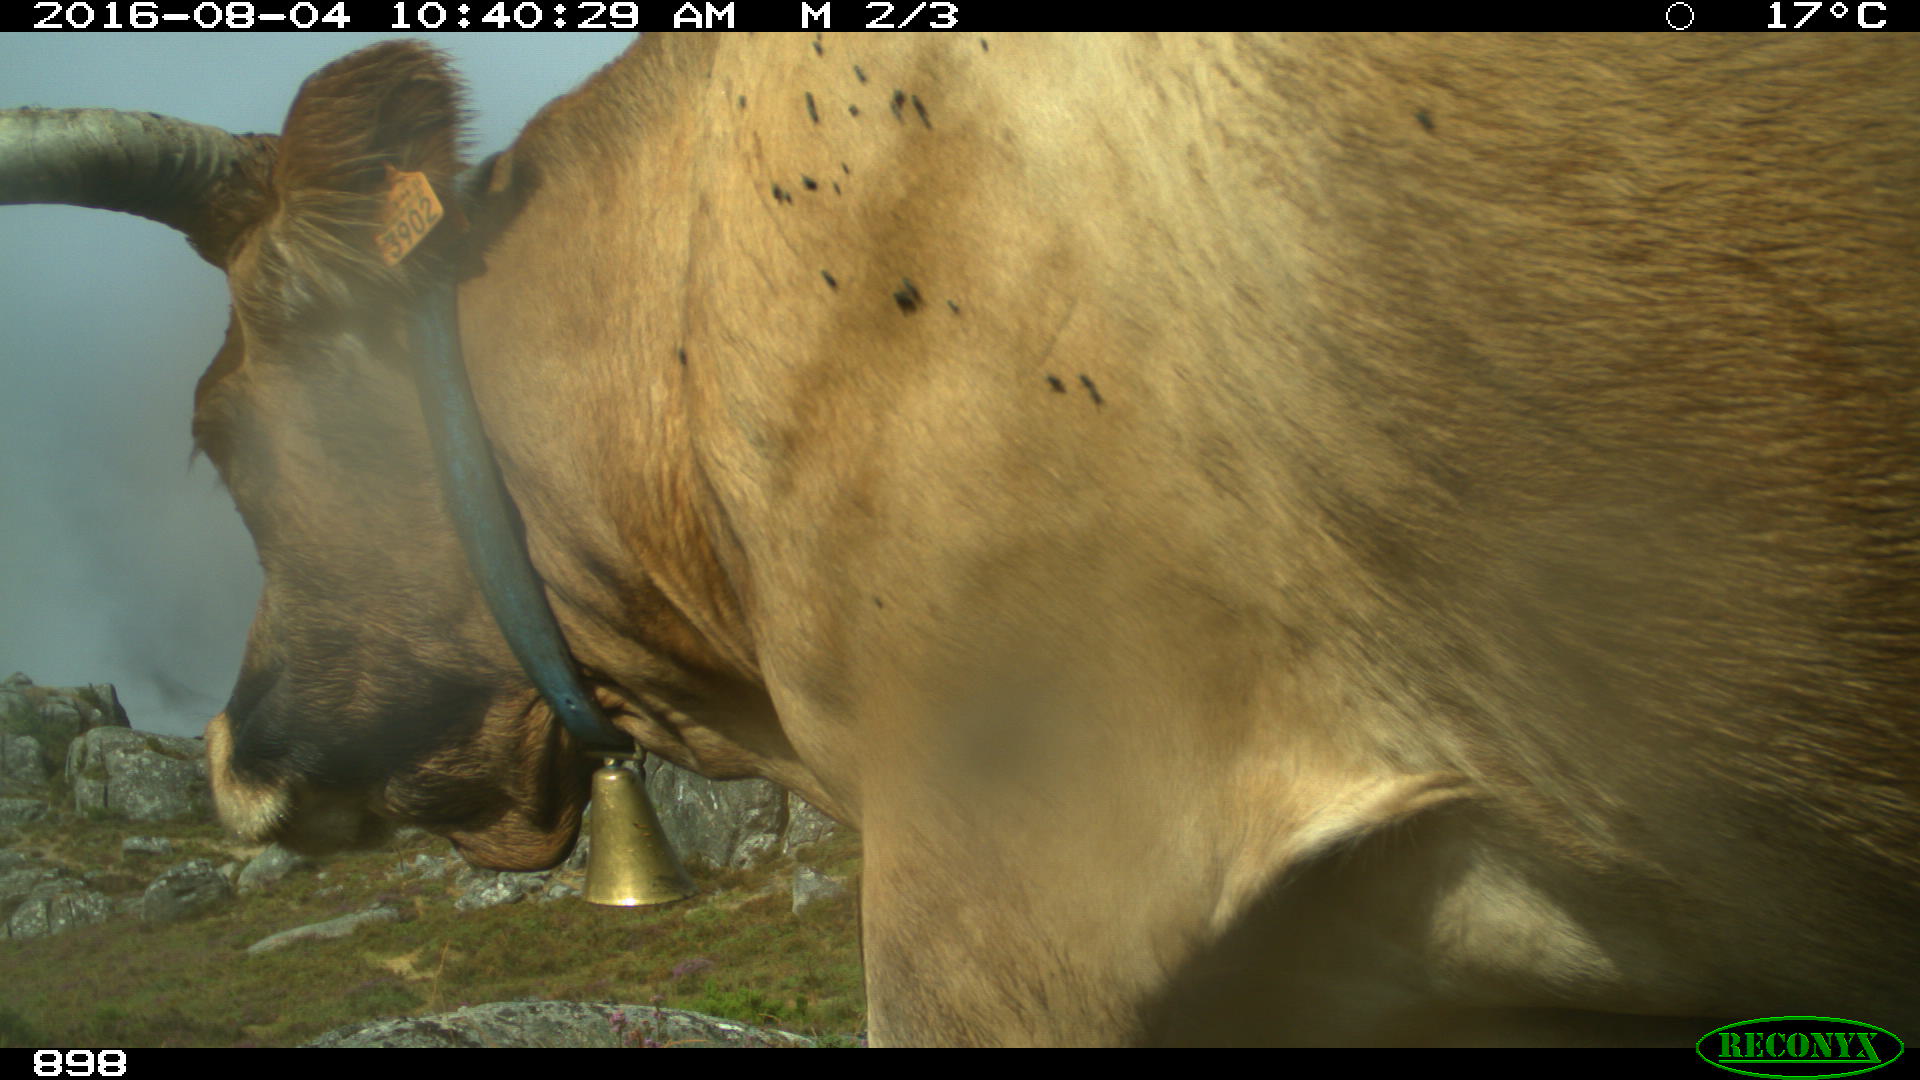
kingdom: Animalia
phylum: Chordata
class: Mammalia
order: Artiodactyla
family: Bovidae
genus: Bos
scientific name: Bos taurus
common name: Domesticated cattle
